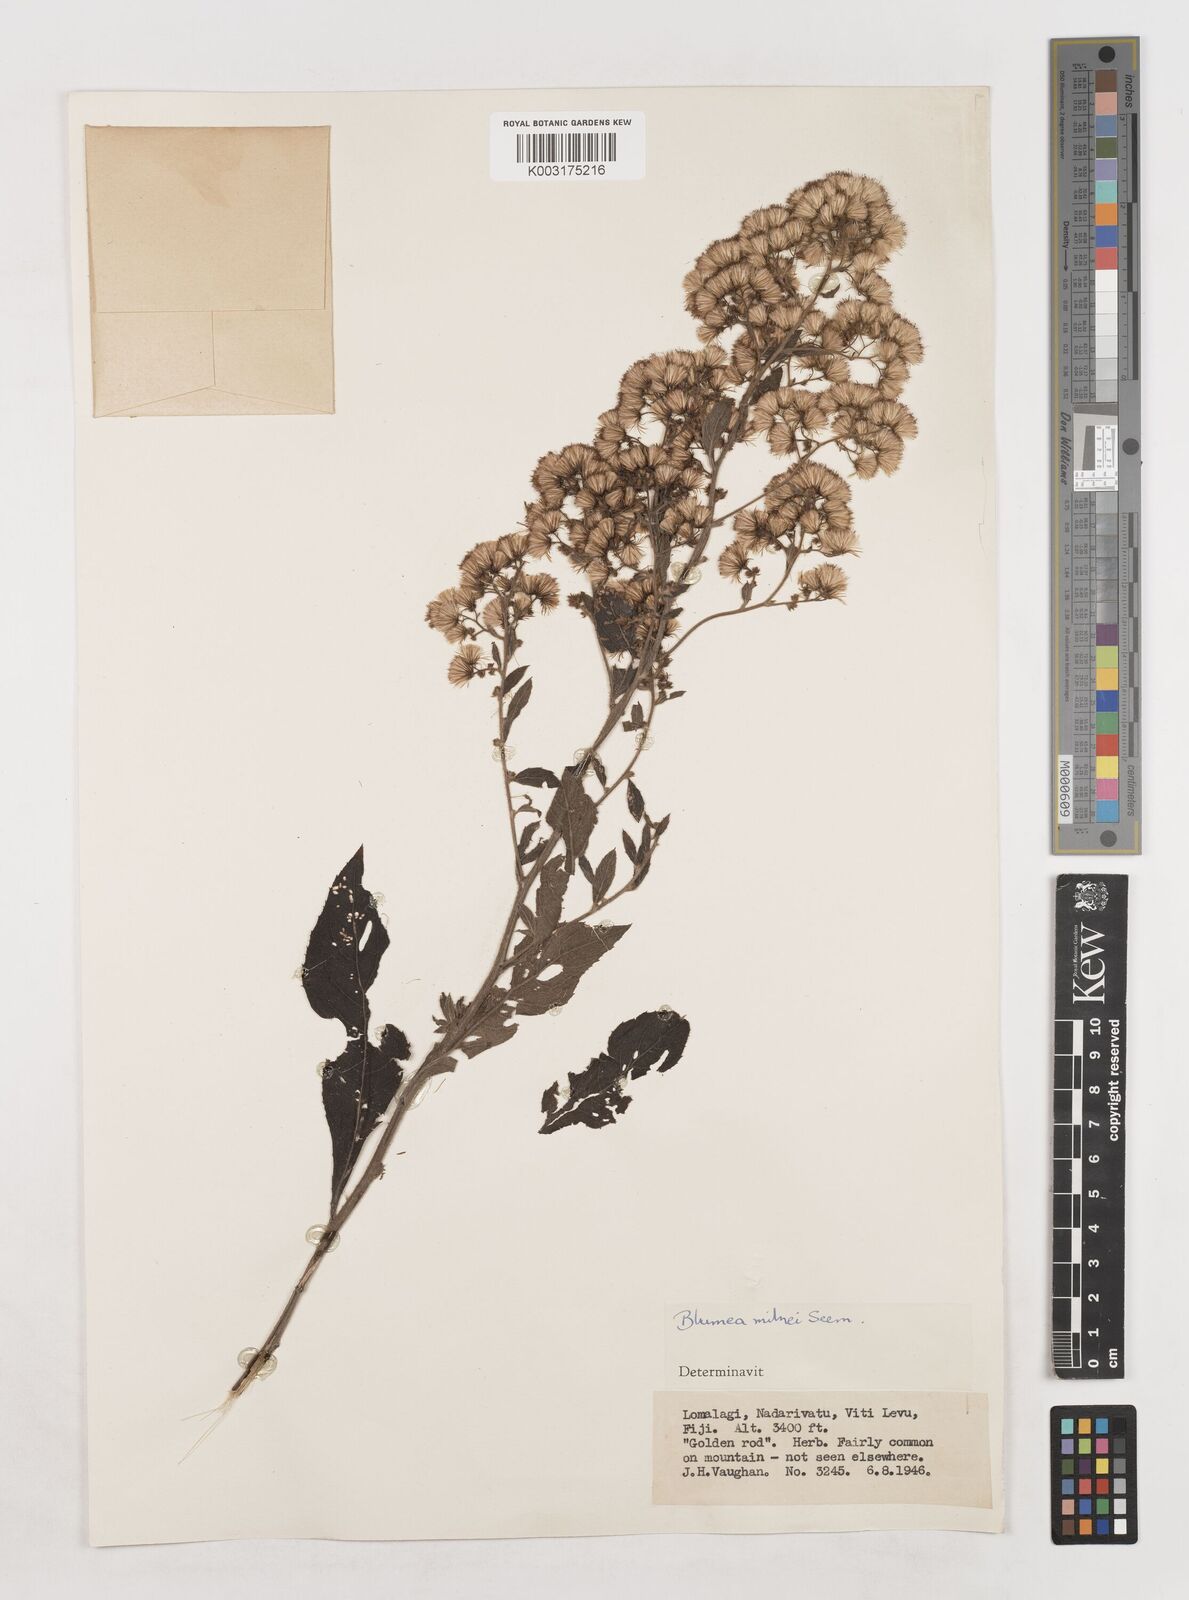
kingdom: Plantae
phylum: Tracheophyta
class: Magnoliopsida
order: Asterales
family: Asteraceae
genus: Blumea
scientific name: Blumea milnei
